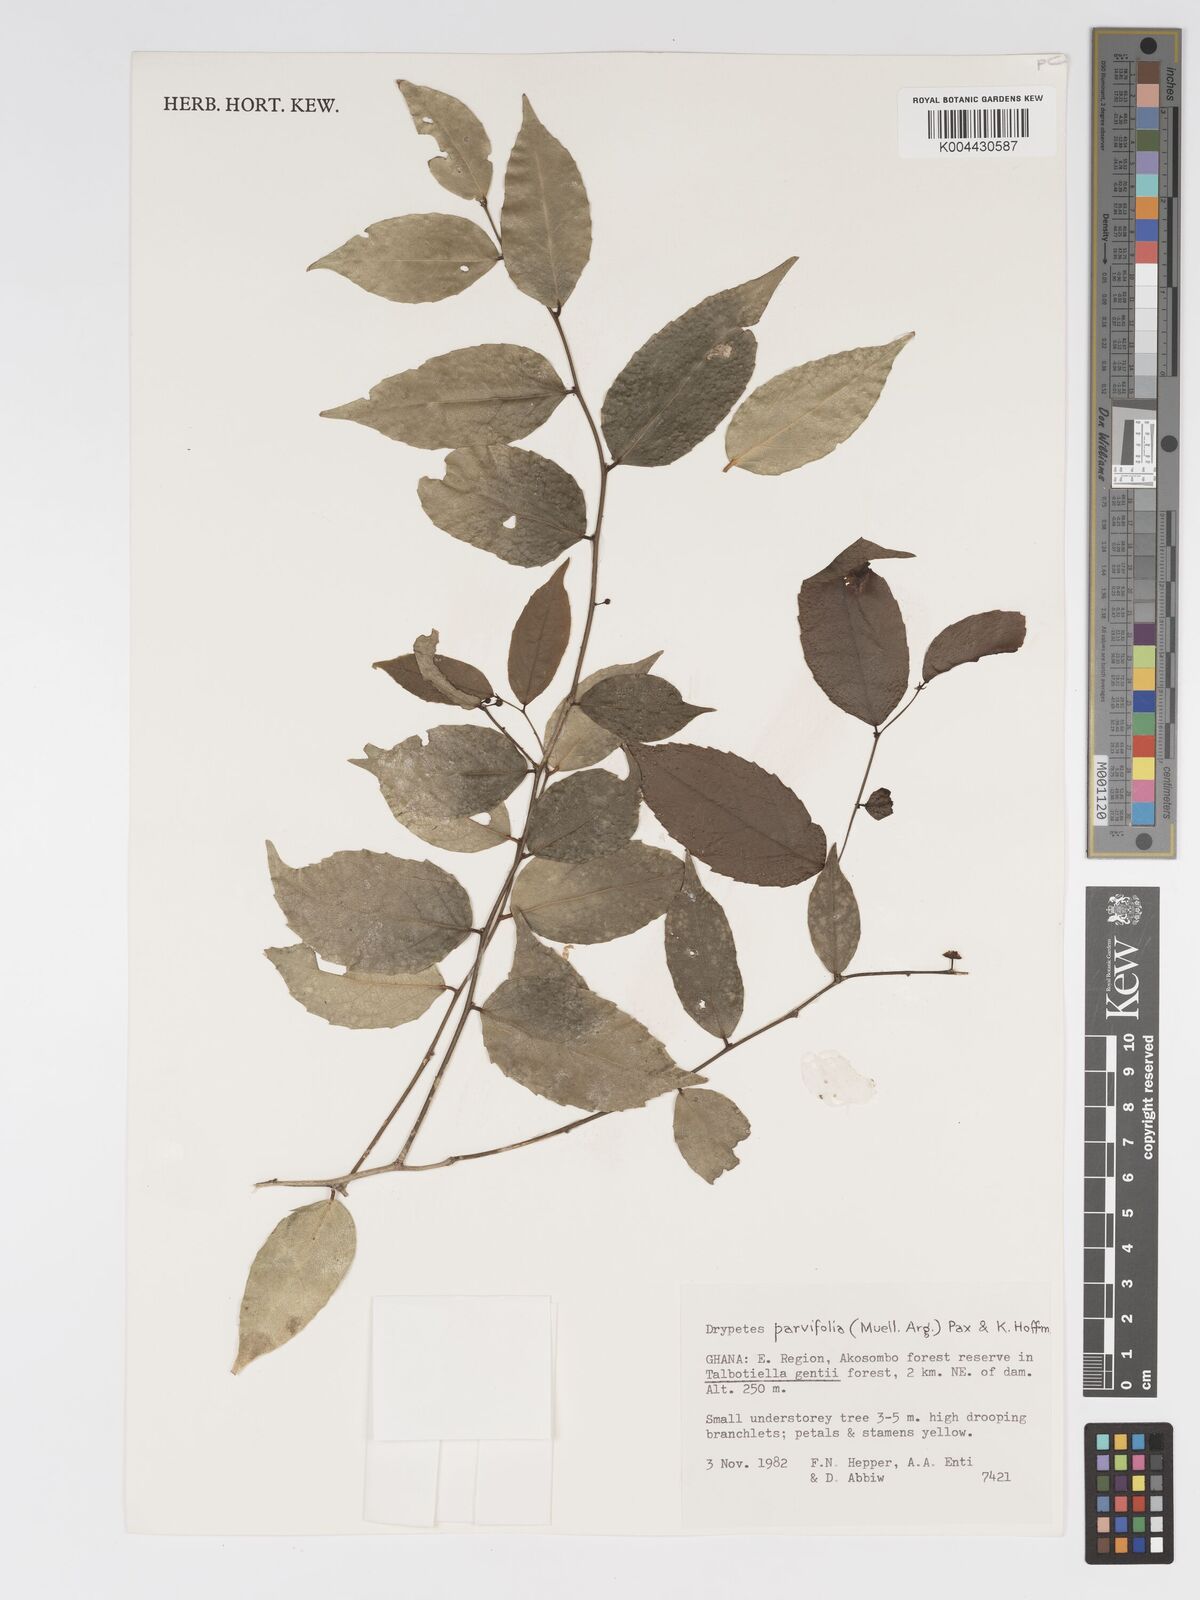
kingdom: Plantae
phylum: Tracheophyta
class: Magnoliopsida
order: Malpighiales
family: Putranjivaceae
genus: Drypetes
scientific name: Drypetes parvifolia
